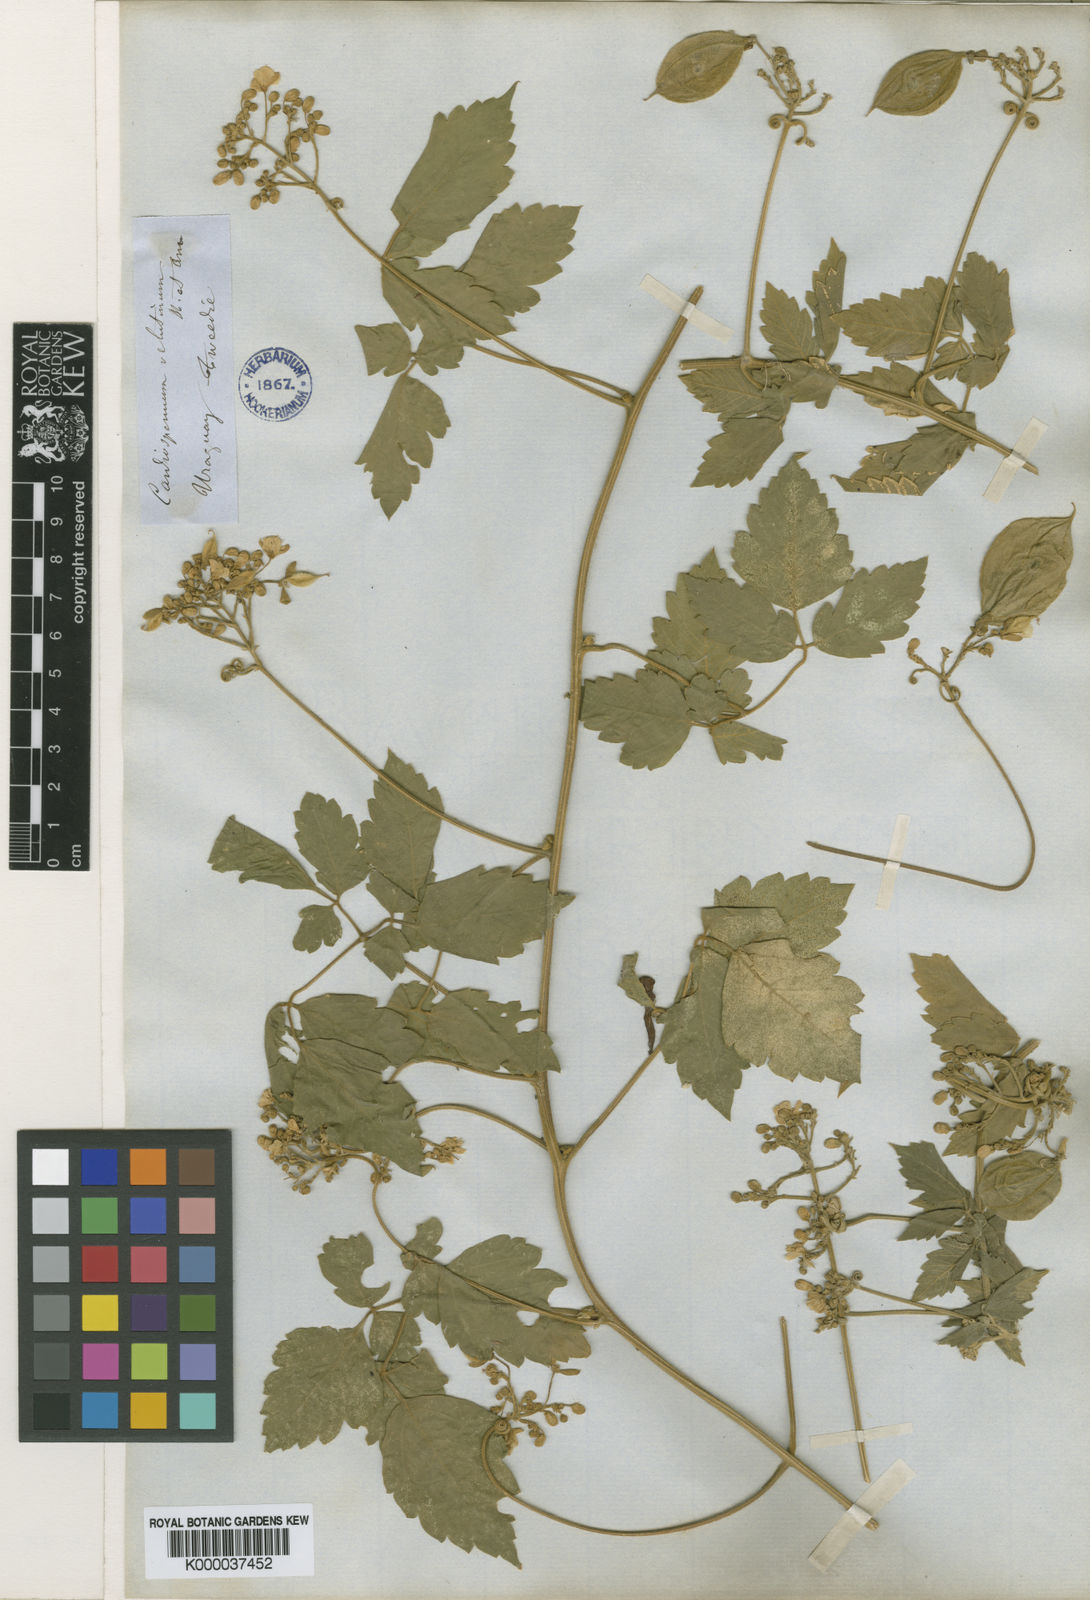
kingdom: Plantae
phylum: Tracheophyta
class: Magnoliopsida
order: Sapindales
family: Sapindaceae
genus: Cardiospermum
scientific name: Cardiospermum grandiflorum
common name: Balloon vine
